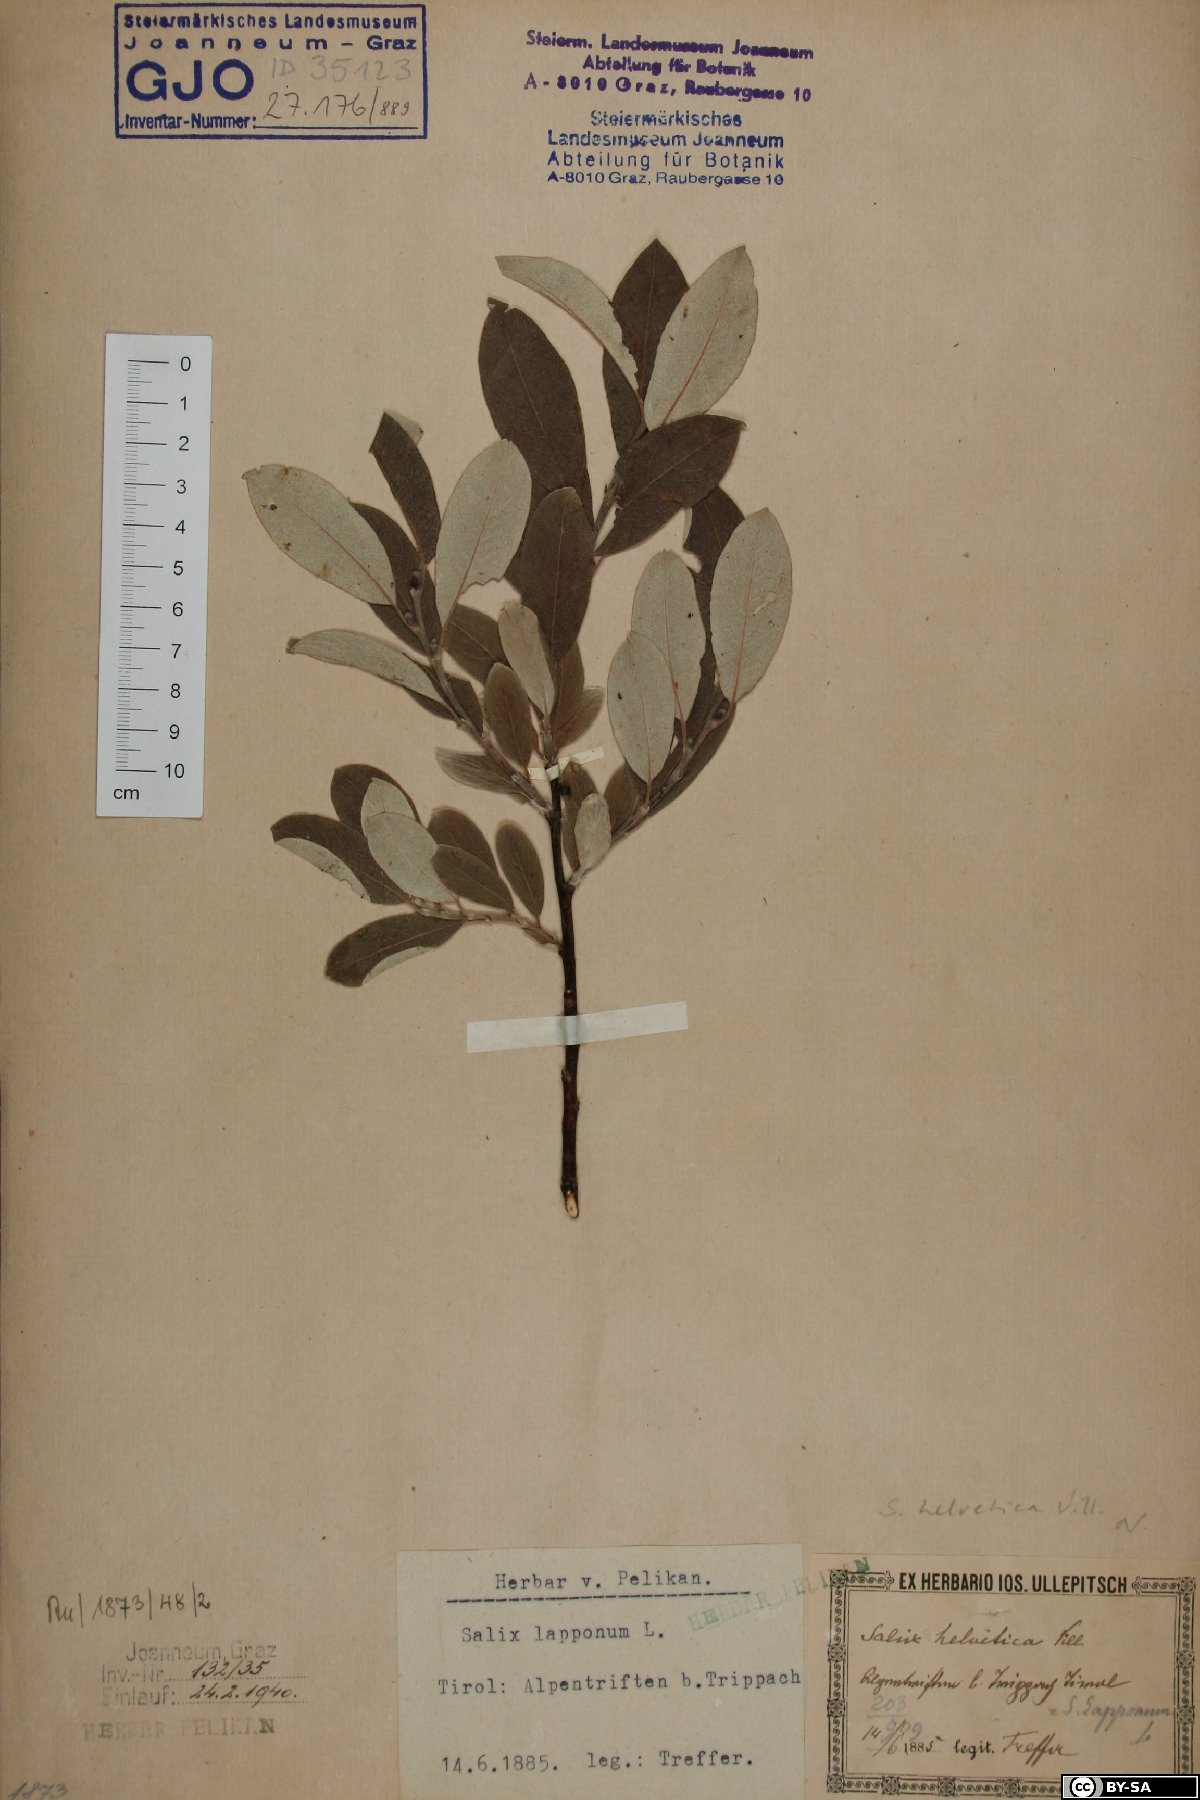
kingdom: Plantae
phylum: Tracheophyta
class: Magnoliopsida
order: Malpighiales
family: Salicaceae
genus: Salix
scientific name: Salix helvetica
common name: Swiss willow
